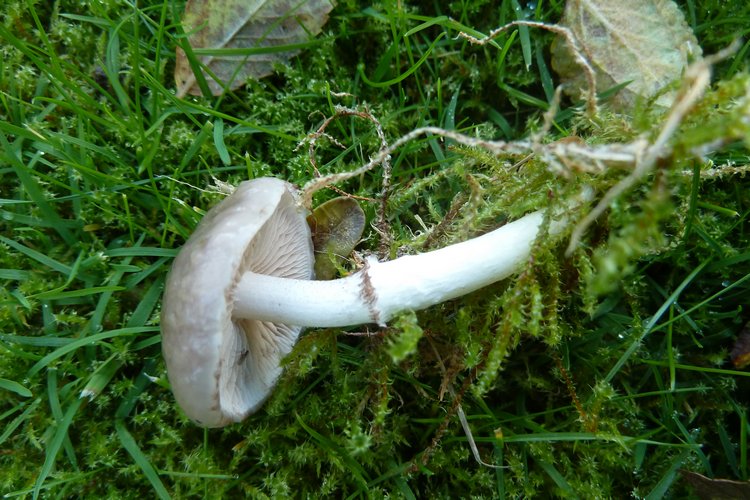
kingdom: Fungi
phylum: Basidiomycota
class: Agaricomycetes
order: Agaricales
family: Strophariaceae
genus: Stropharia
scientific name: Stropharia inuncta
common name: lillabrun bredblad
